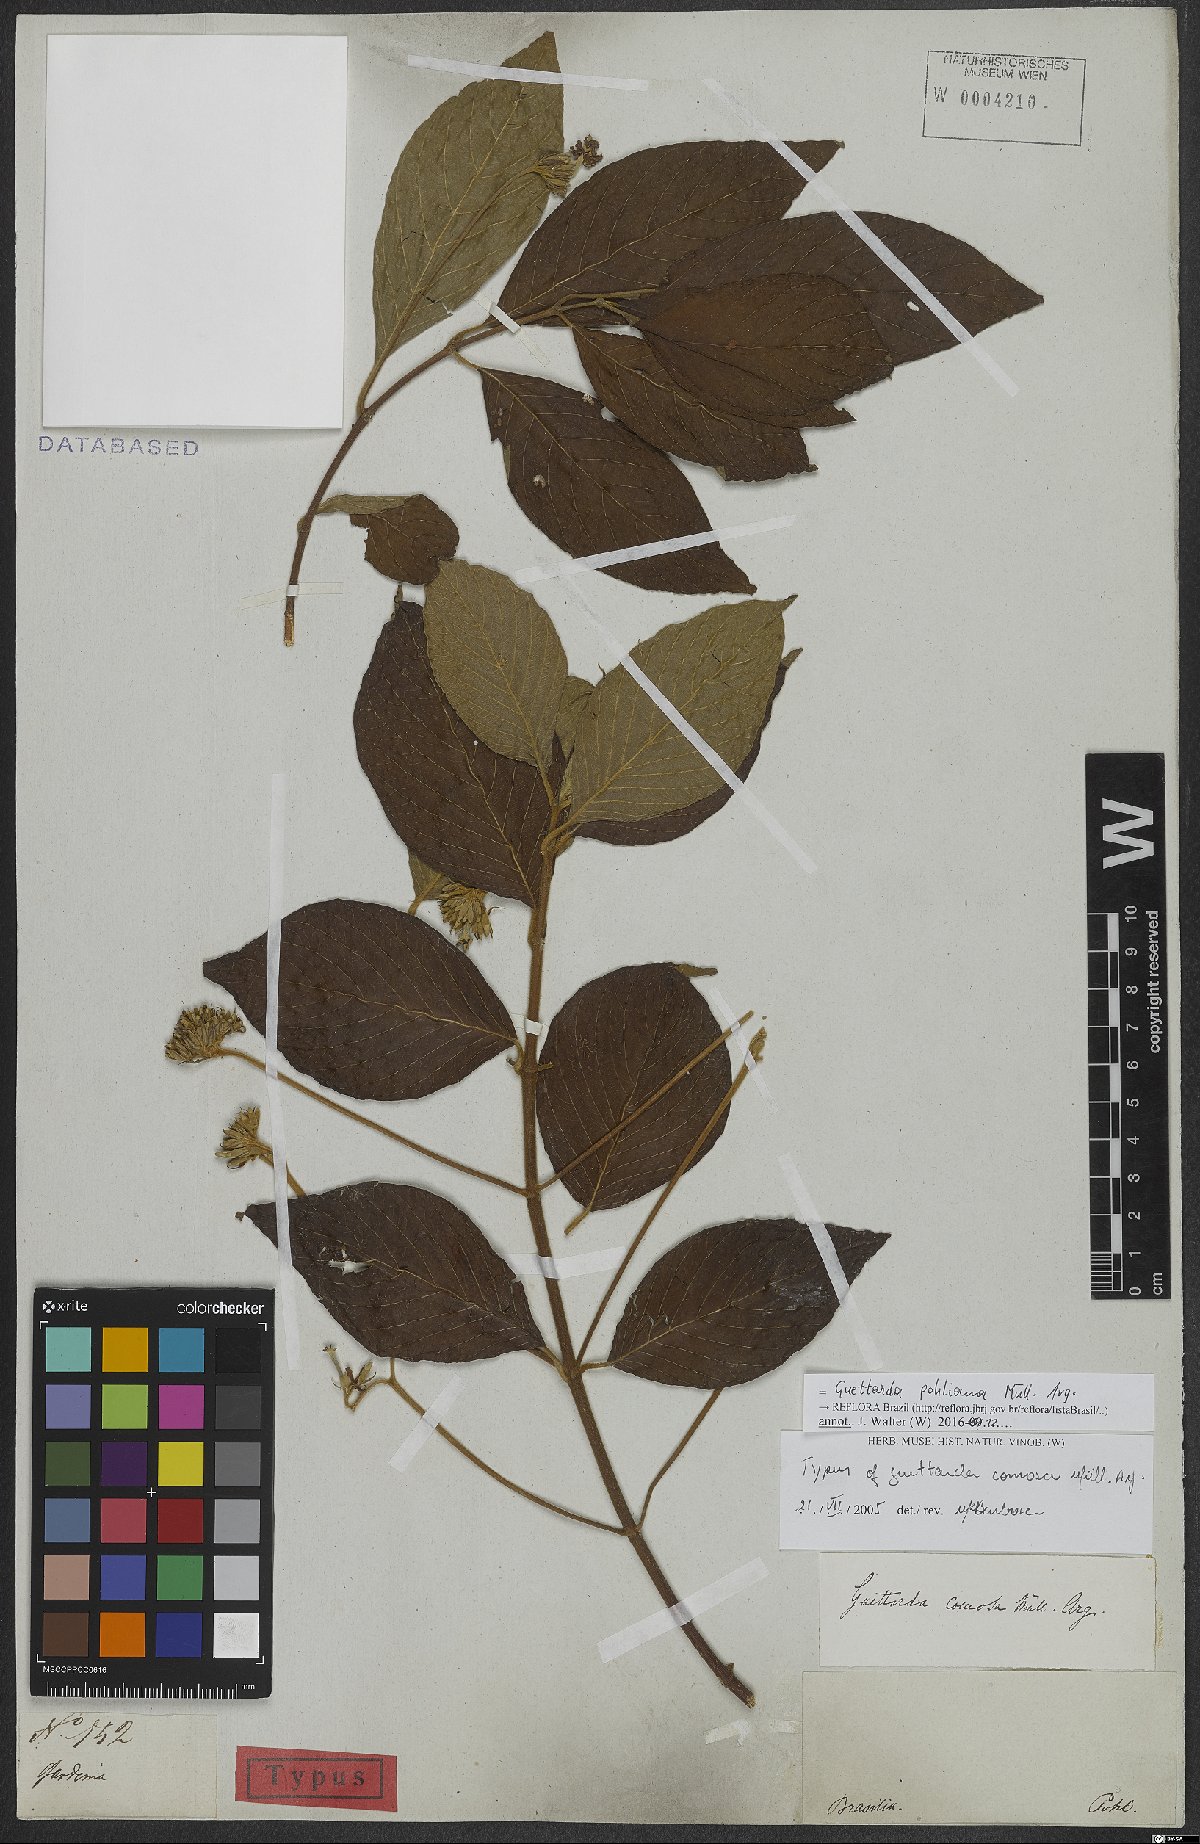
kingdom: Plantae
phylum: Tracheophyta
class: Magnoliopsida
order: Gentianales
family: Rubiaceae
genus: Guettarda
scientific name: Guettarda pohliana
